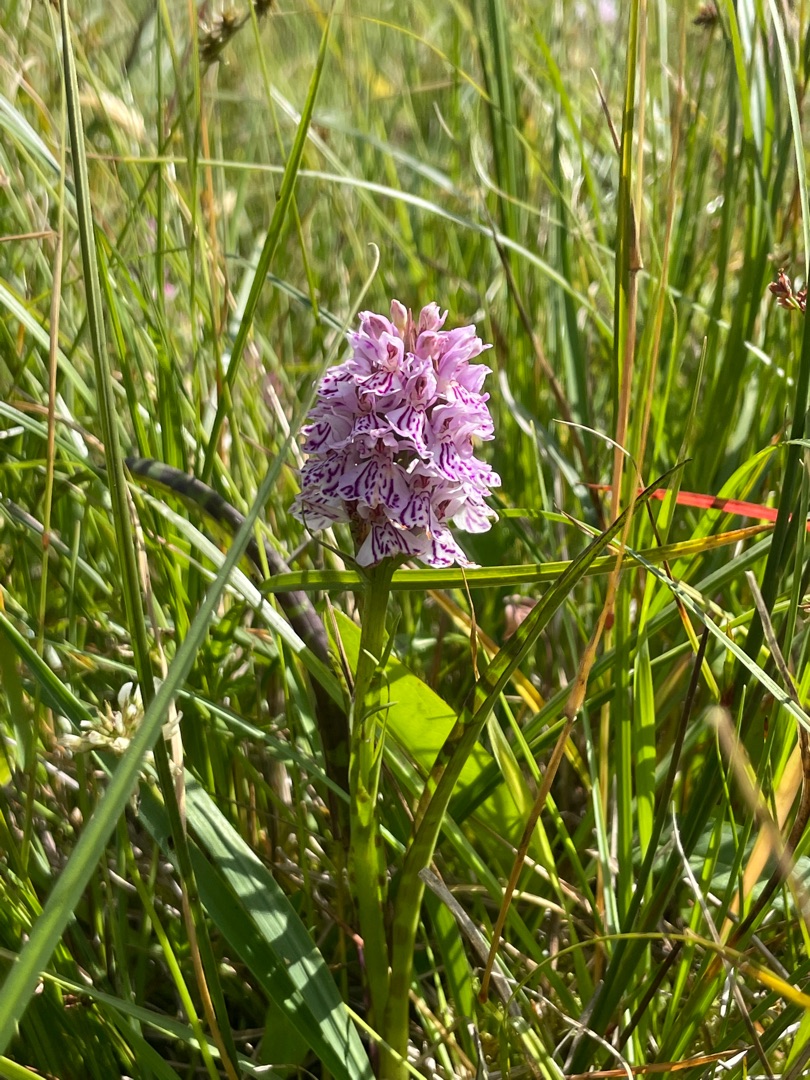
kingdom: Plantae
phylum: Tracheophyta
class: Liliopsida
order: Asparagales
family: Orchidaceae
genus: Dactylorhiza
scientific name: Dactylorhiza maculata
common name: Plettet gøgeurt
